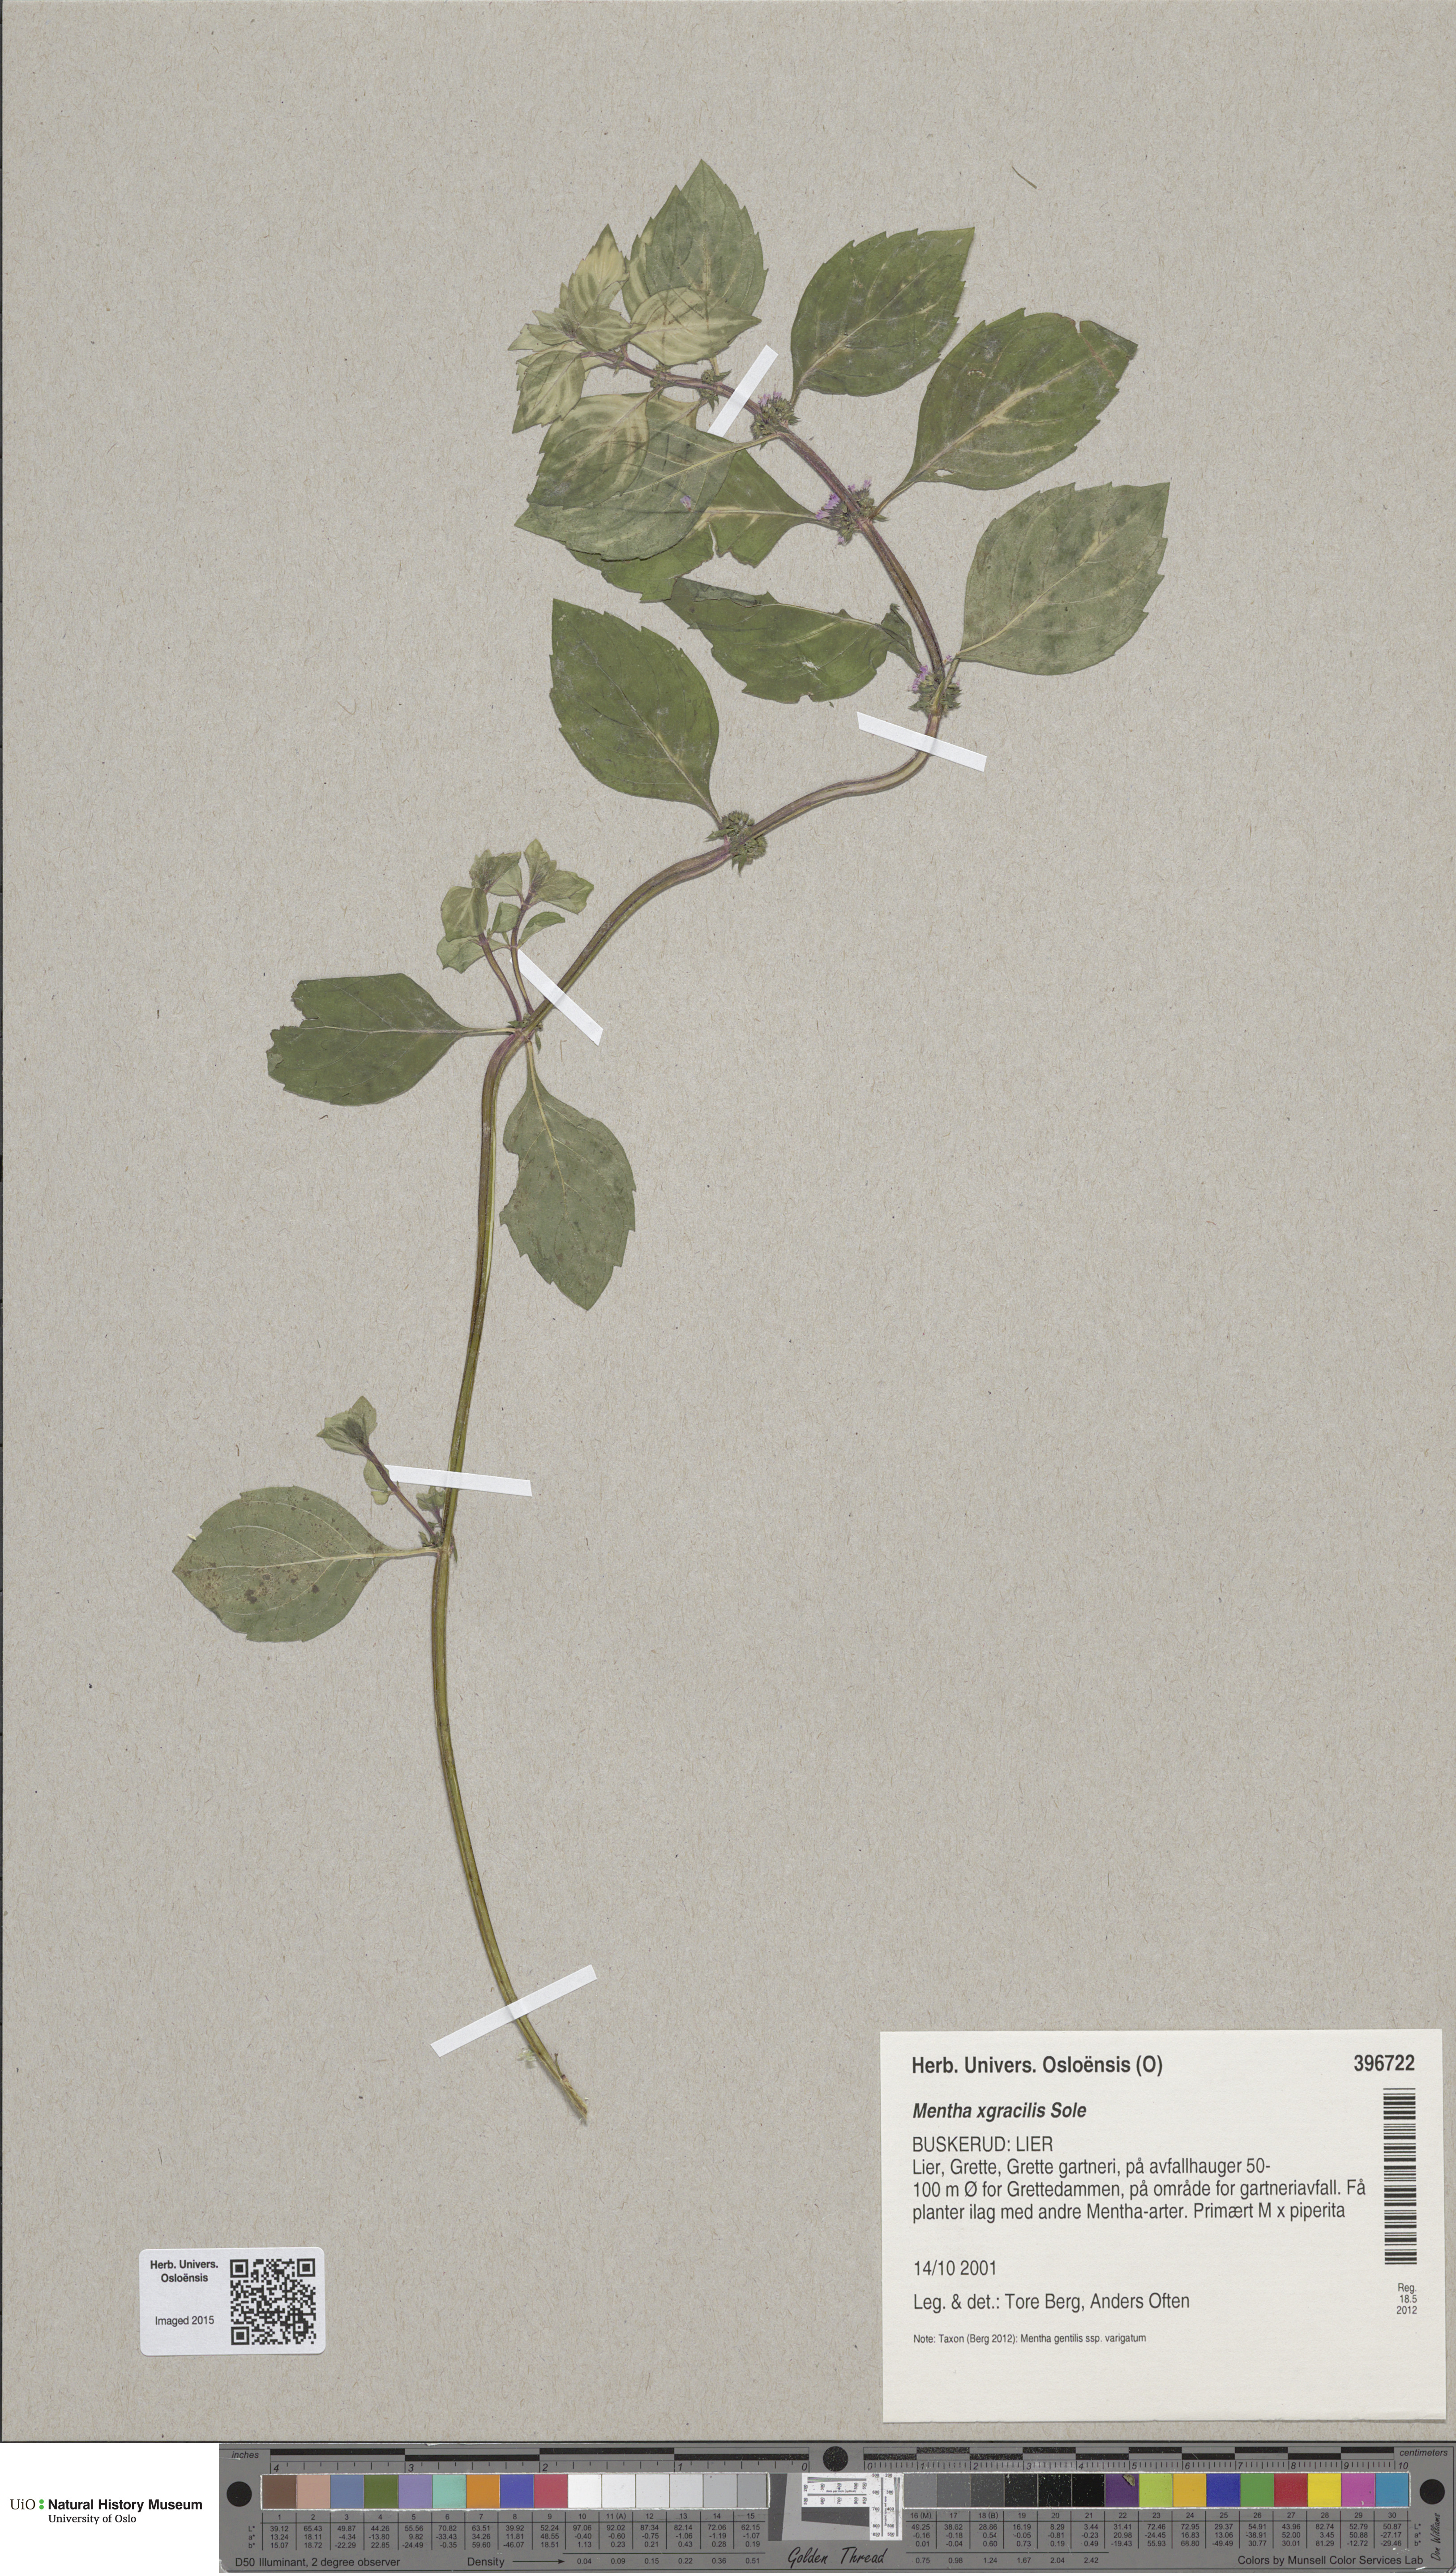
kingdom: Plantae
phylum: Tracheophyta
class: Magnoliopsida
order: Lamiales
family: Lamiaceae
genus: Mentha
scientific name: Mentha arvensis
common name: Corn mint
